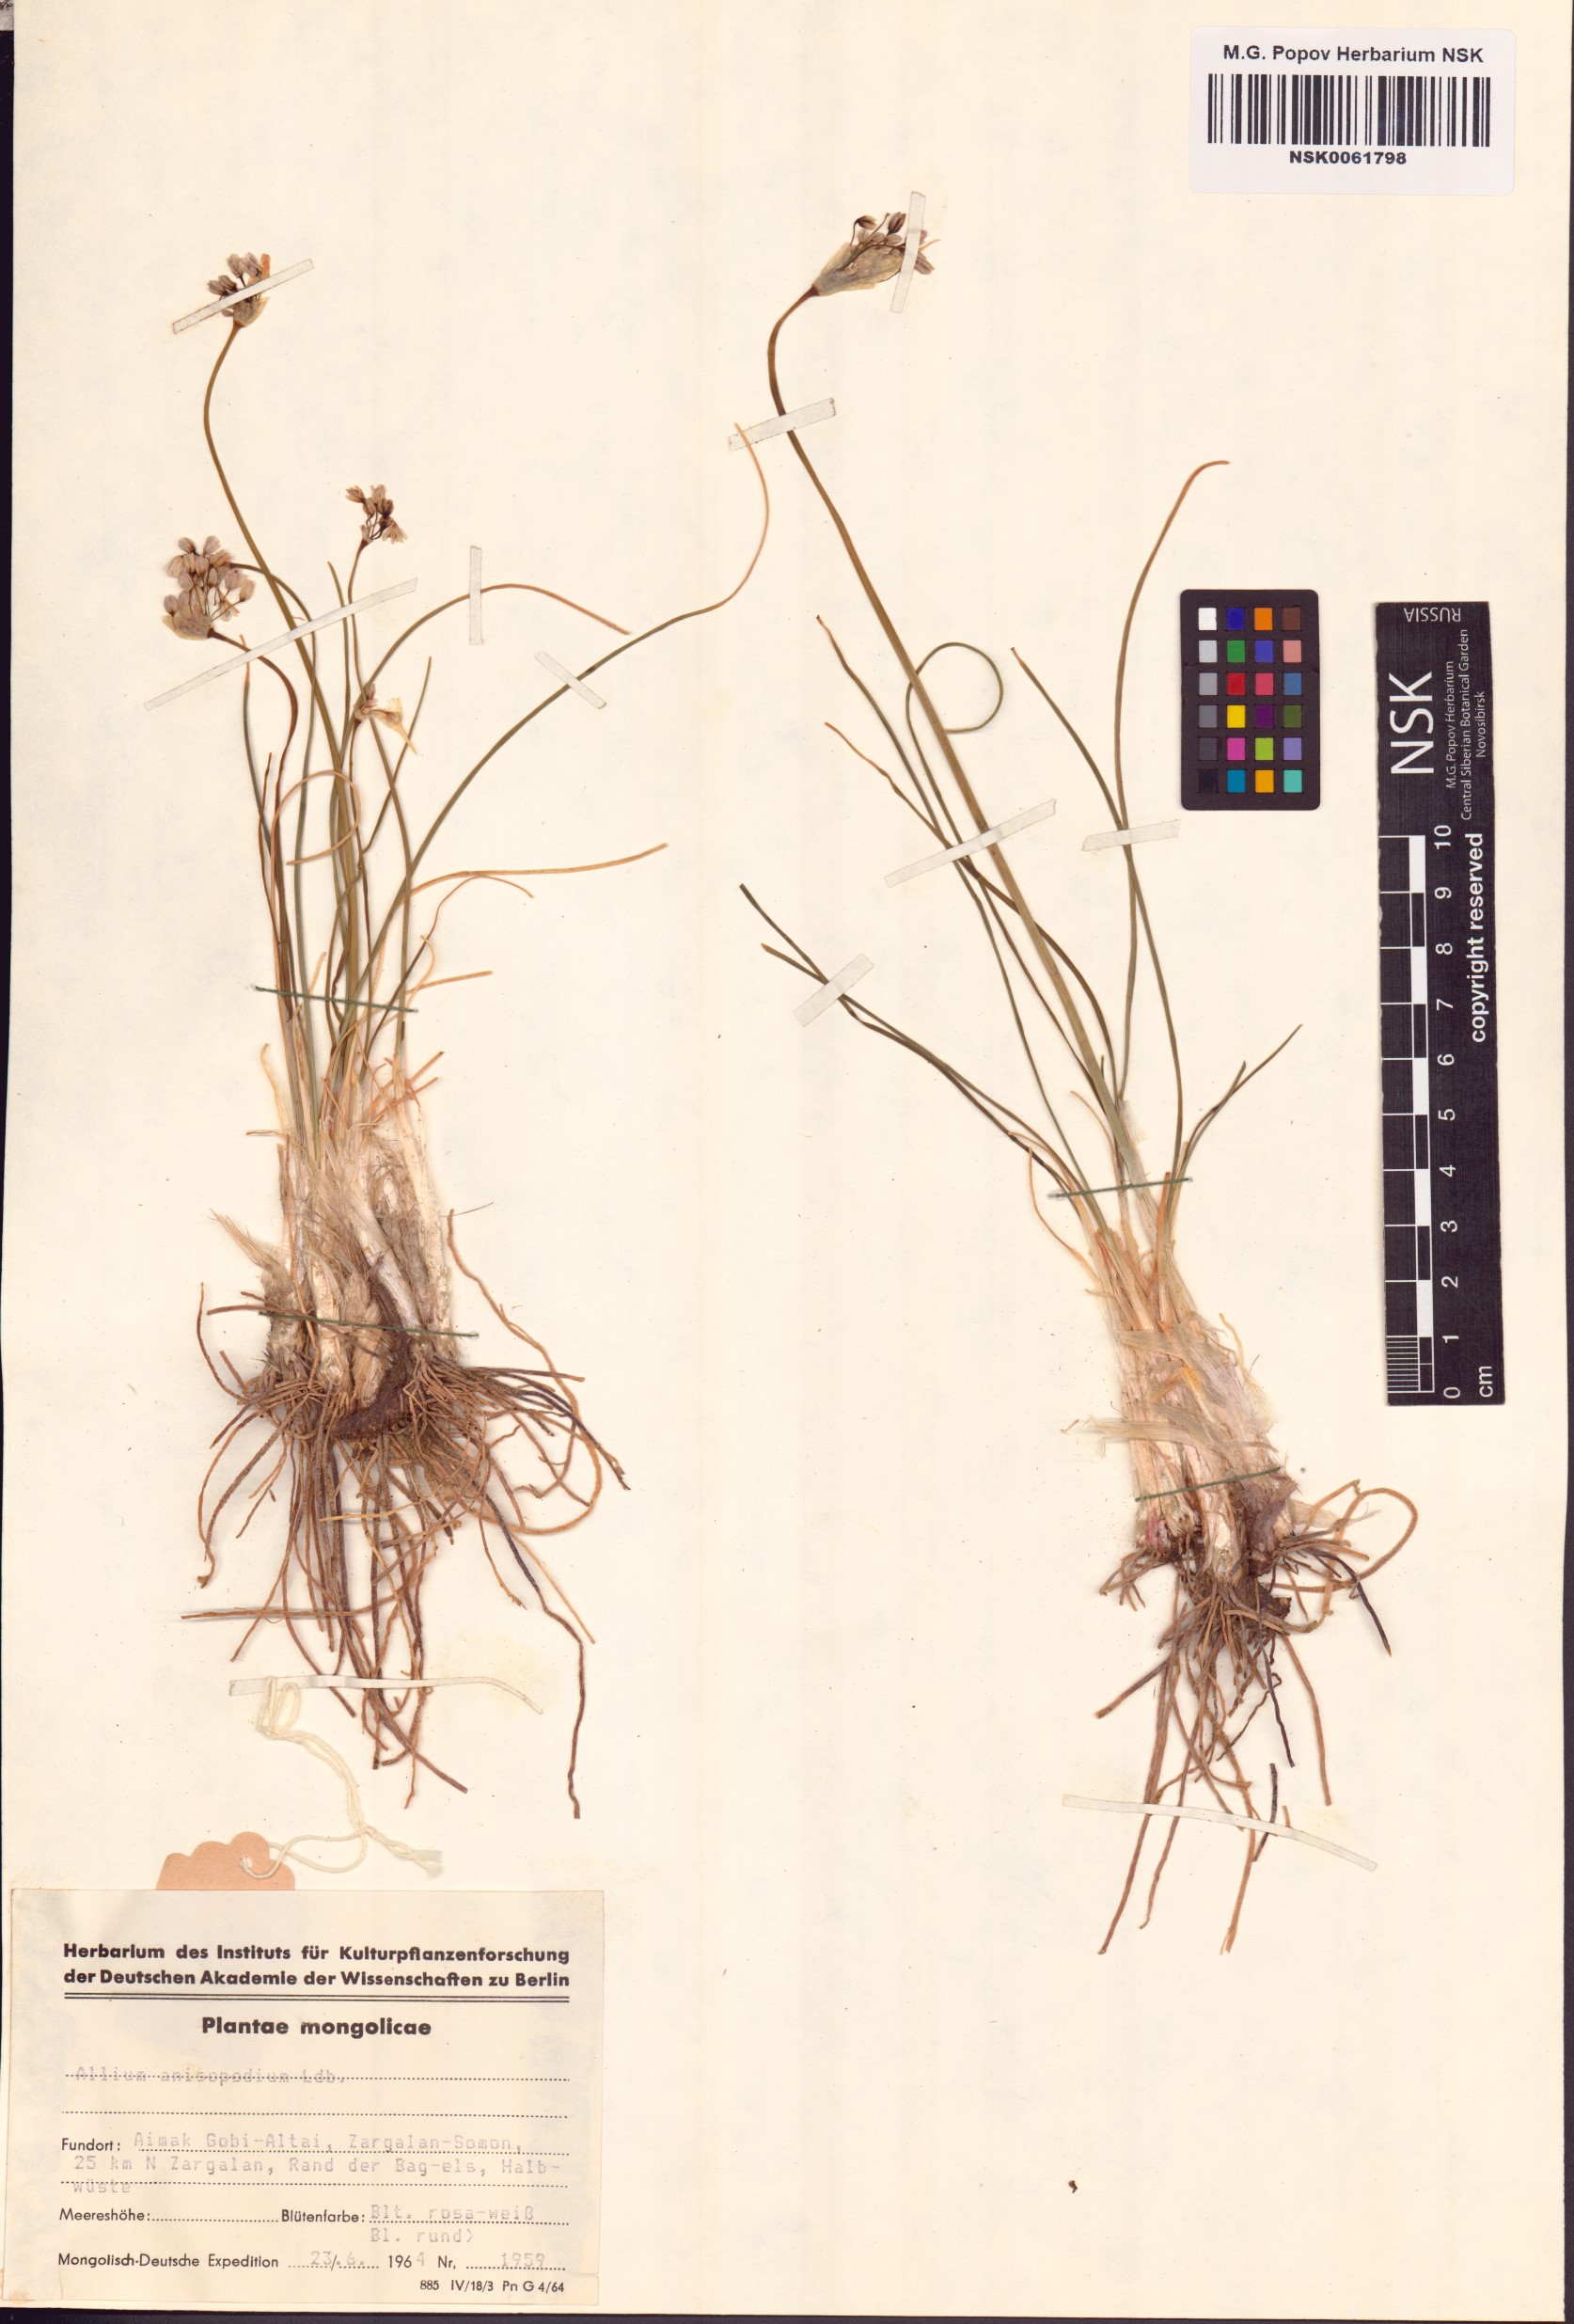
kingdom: Plantae
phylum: Tracheophyta
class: Liliopsida
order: Asparagales
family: Amaryllidaceae
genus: Allium
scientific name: Allium anisopodium
